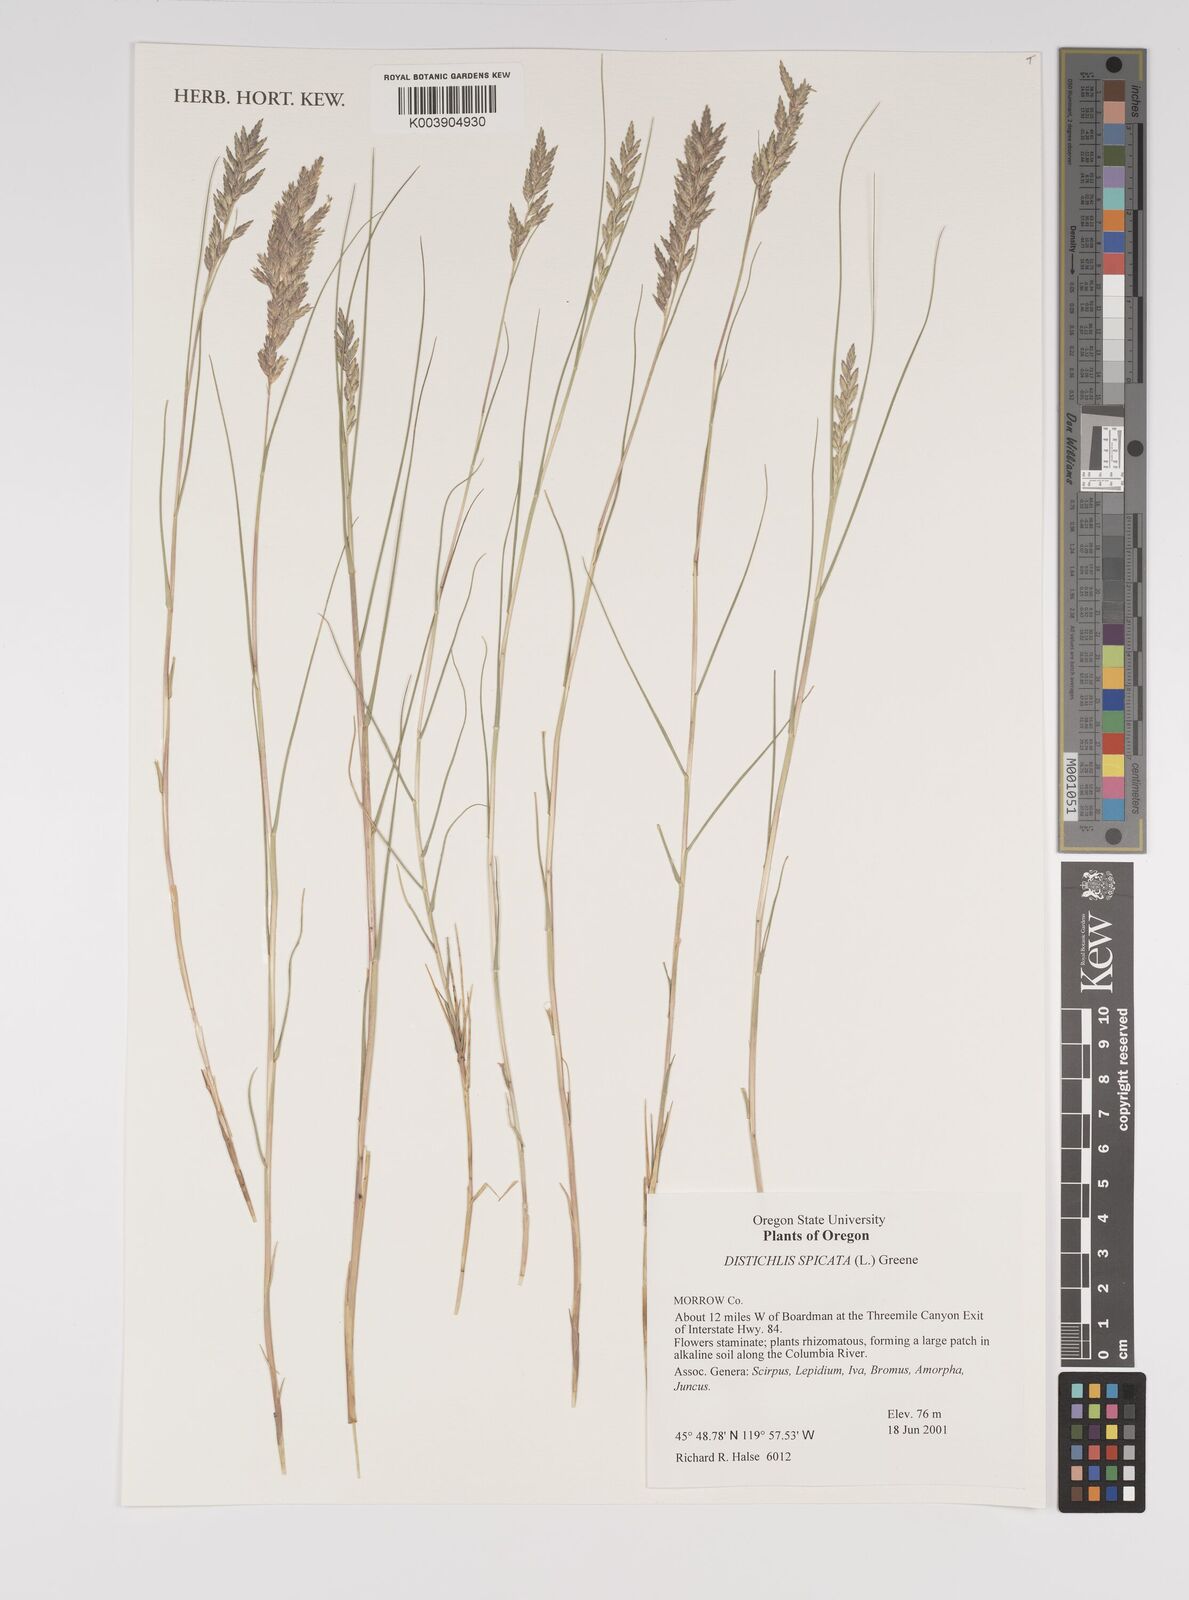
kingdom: Plantae
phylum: Tracheophyta
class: Liliopsida
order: Poales
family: Poaceae
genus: Distichlis
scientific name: Distichlis spicata
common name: Saltgrass
